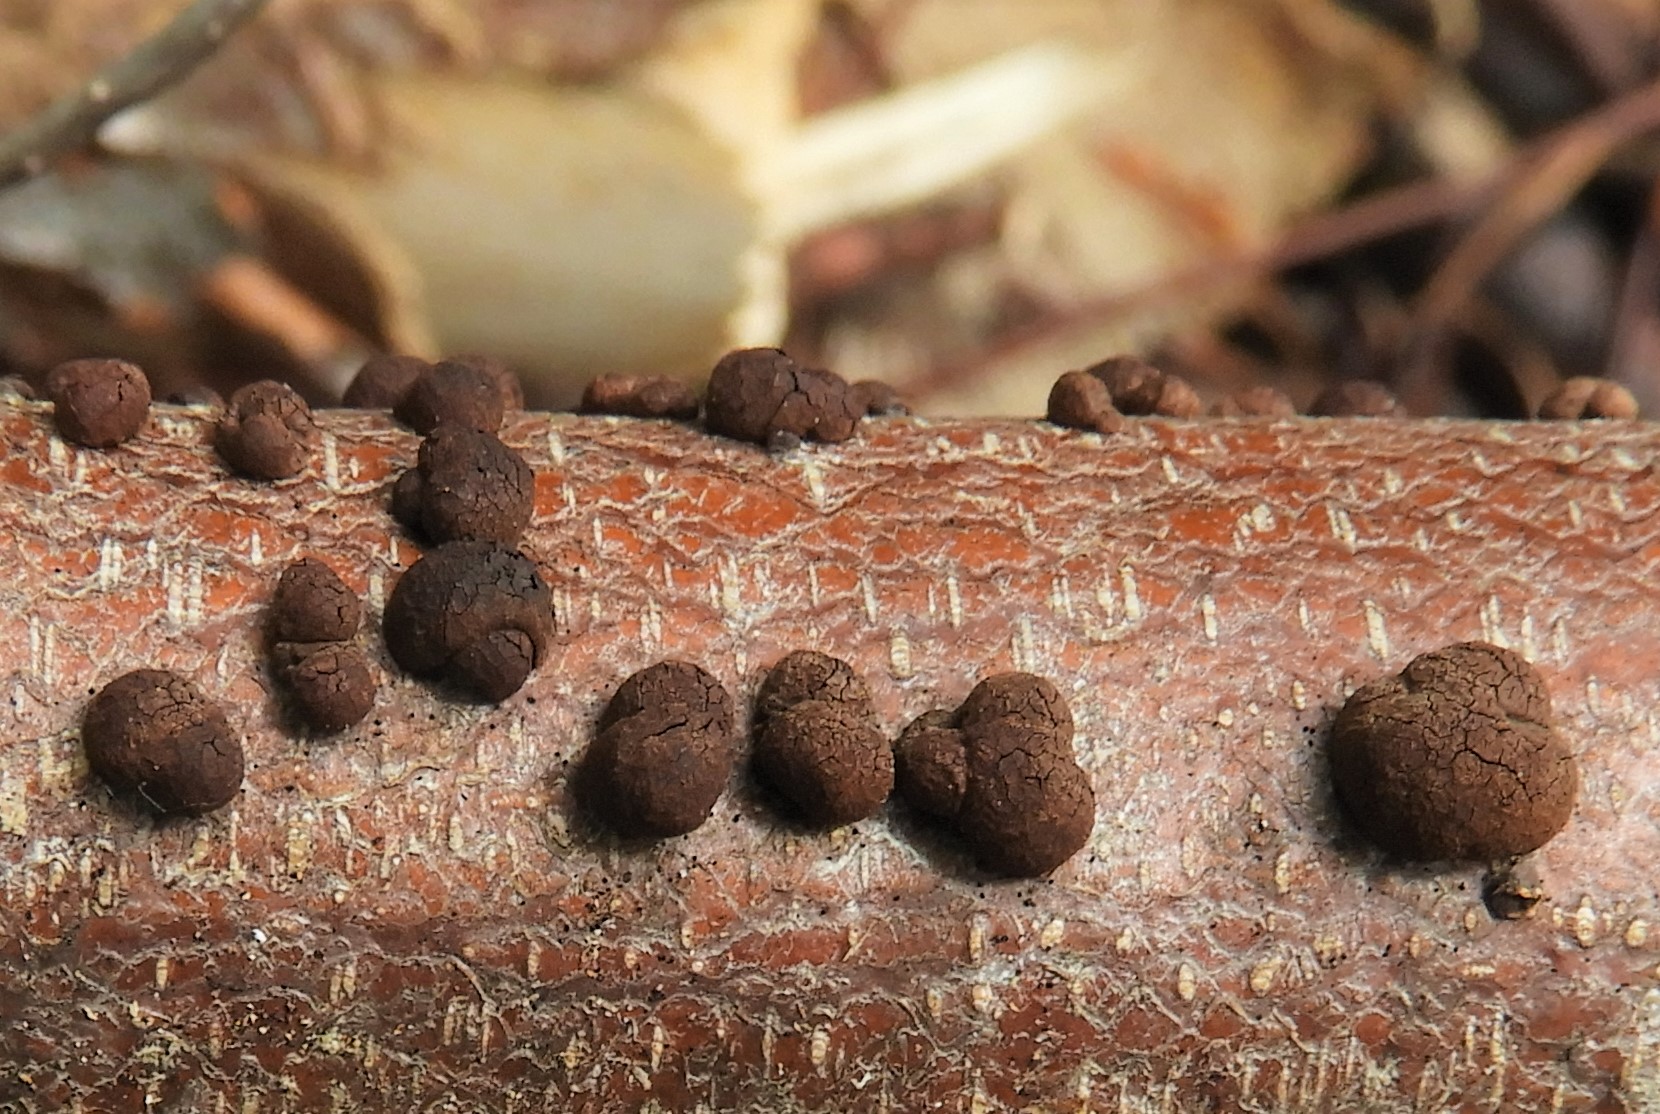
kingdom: Fungi
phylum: Ascomycota
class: Sordariomycetes
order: Xylariales
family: Hypoxylaceae
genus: Hypoxylon
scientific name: Hypoxylon fragiforme
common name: kuljordbær
